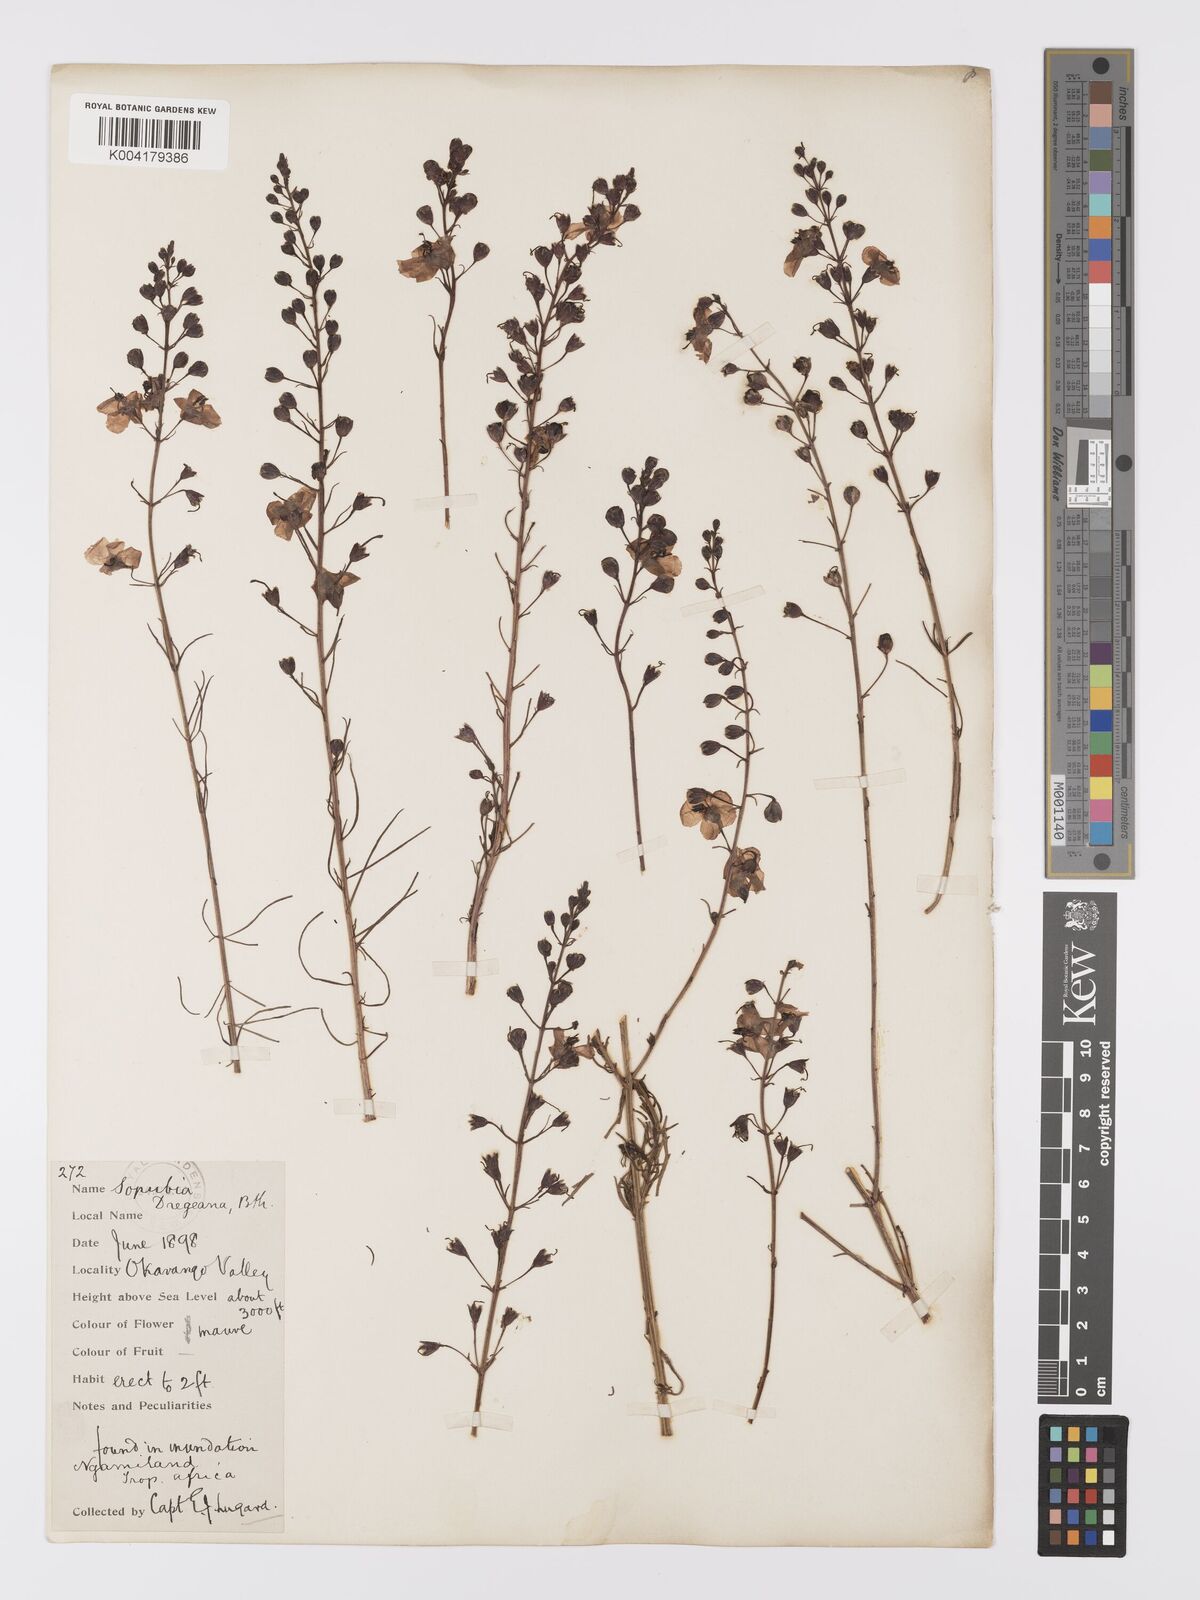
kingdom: Plantae
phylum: Tracheophyta
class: Magnoliopsida
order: Lamiales
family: Orobanchaceae
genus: Sopubia
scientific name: Sopubia simplex
